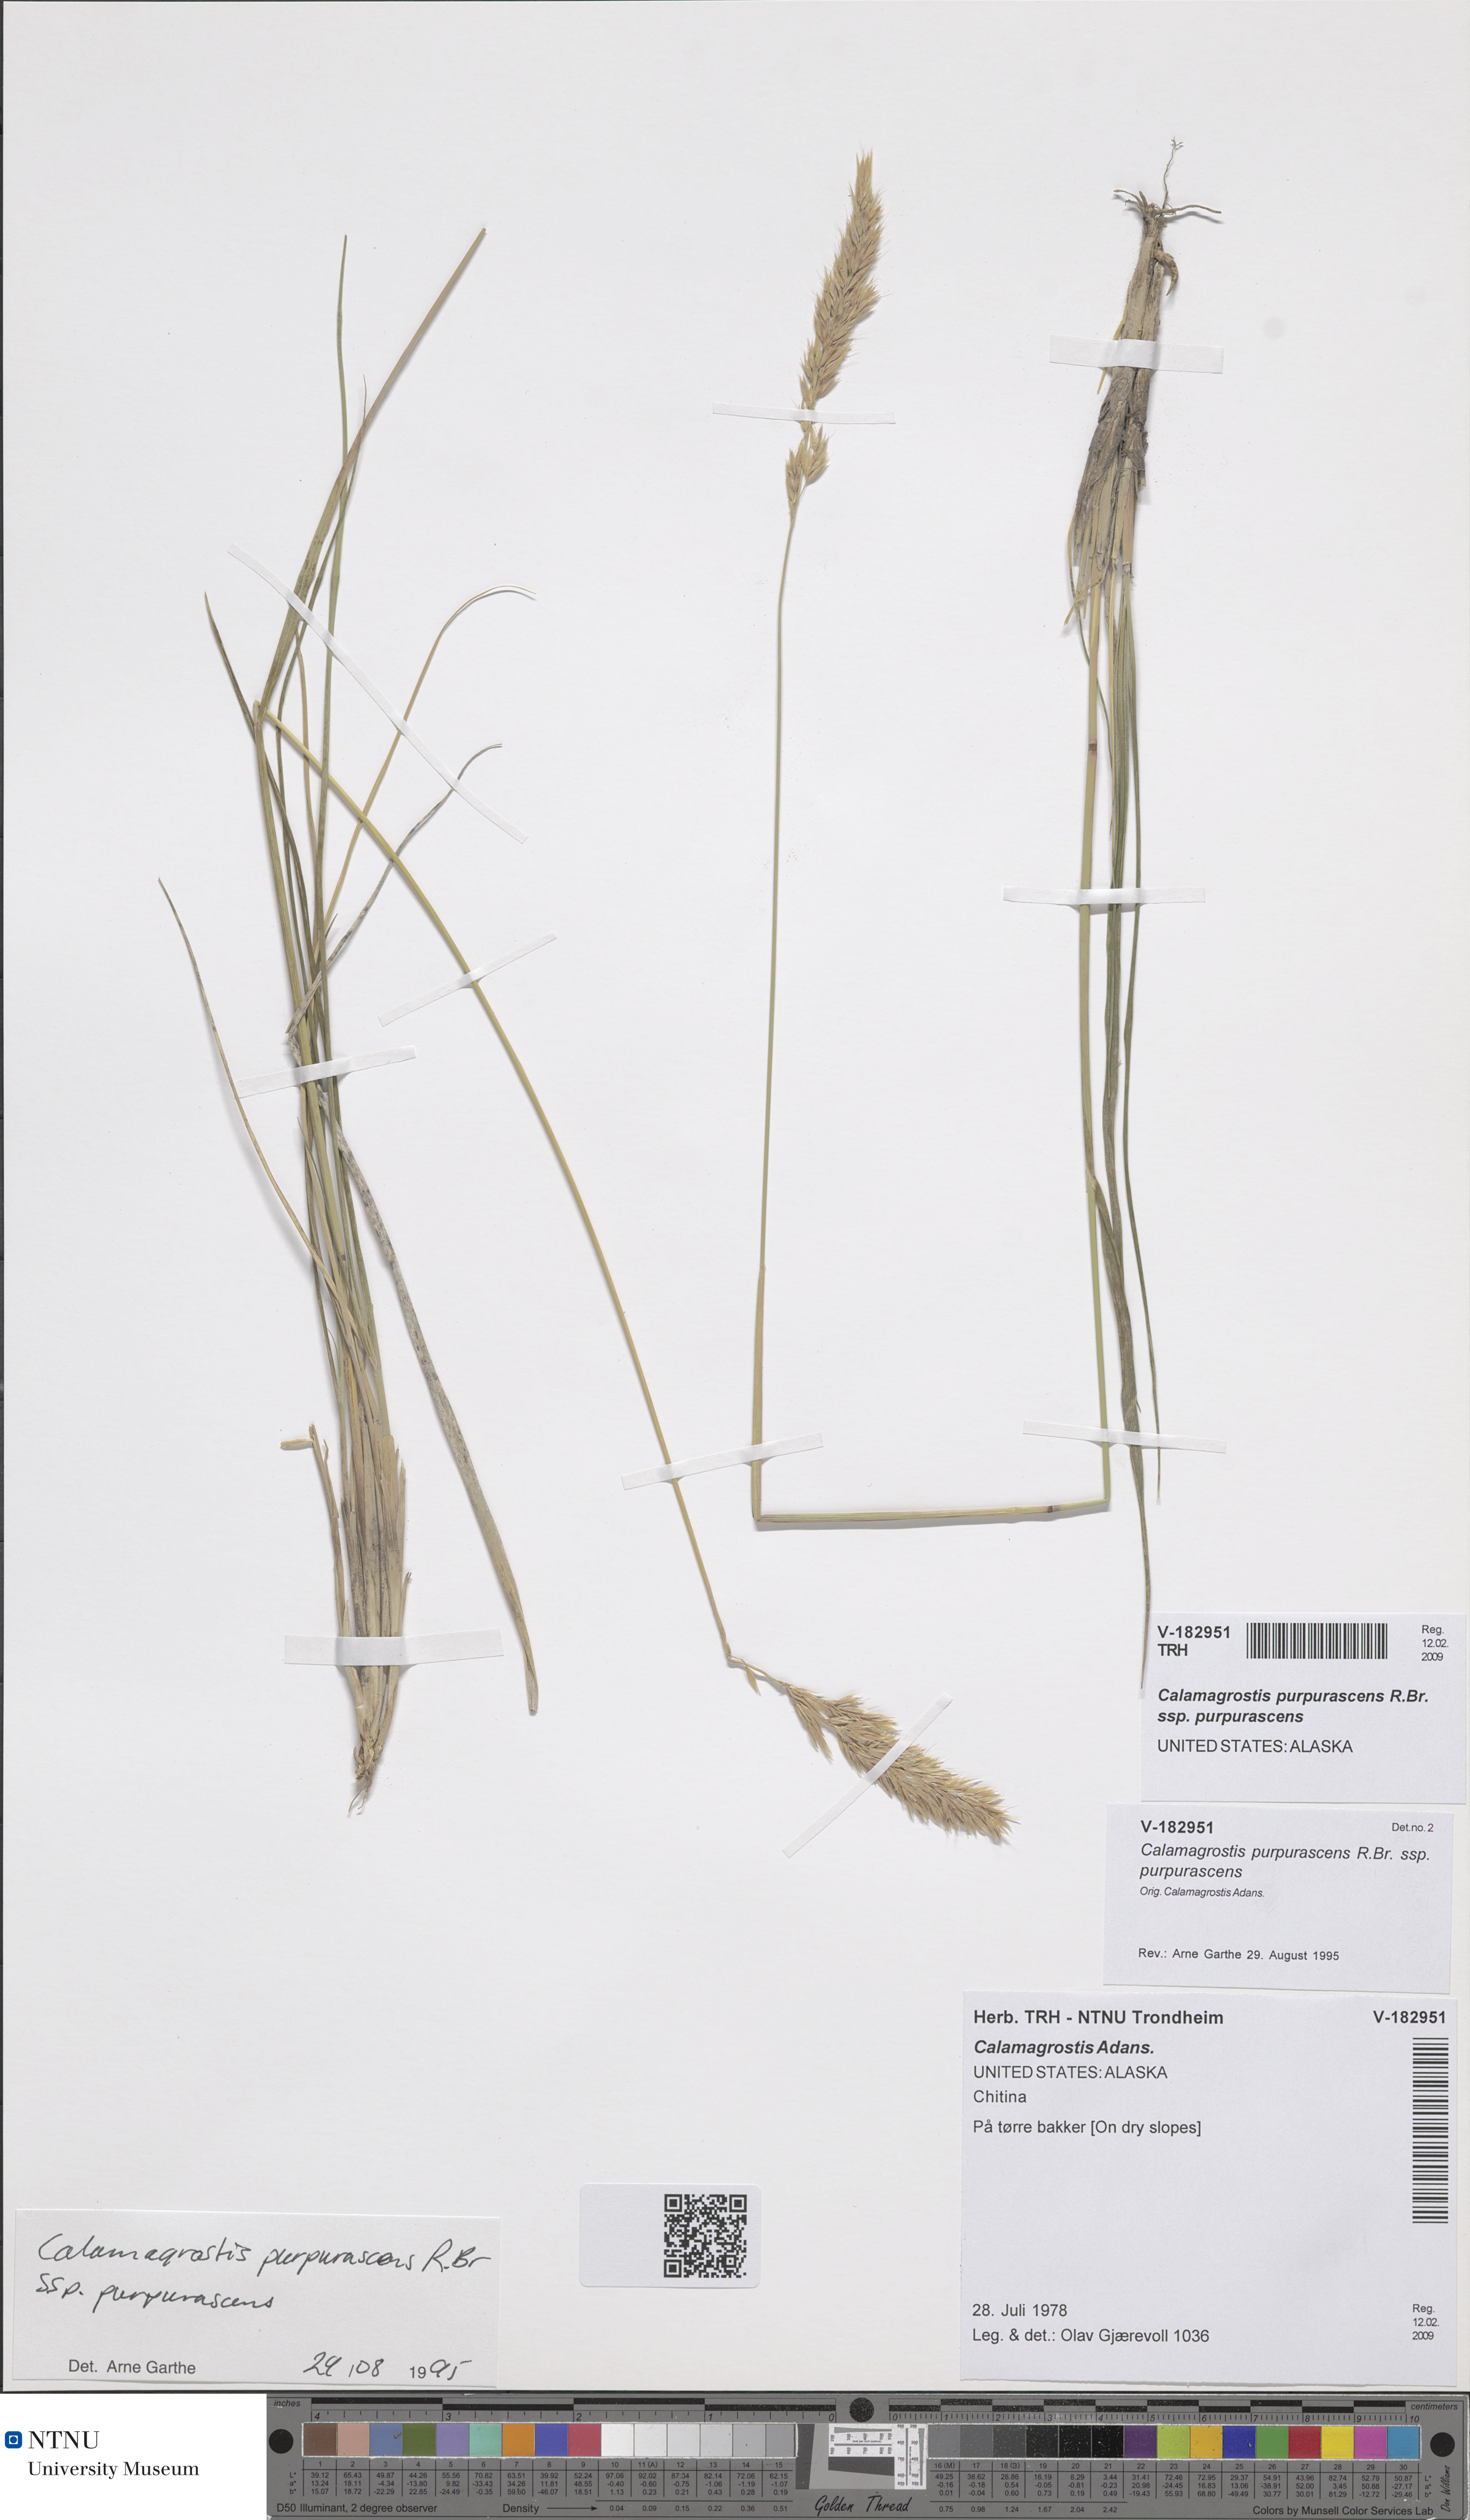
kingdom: Plantae
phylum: Tracheophyta
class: Liliopsida
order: Poales
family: Poaceae
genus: Calamagrostis
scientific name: Calamagrostis purpurascens
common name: Purple reedgrass
